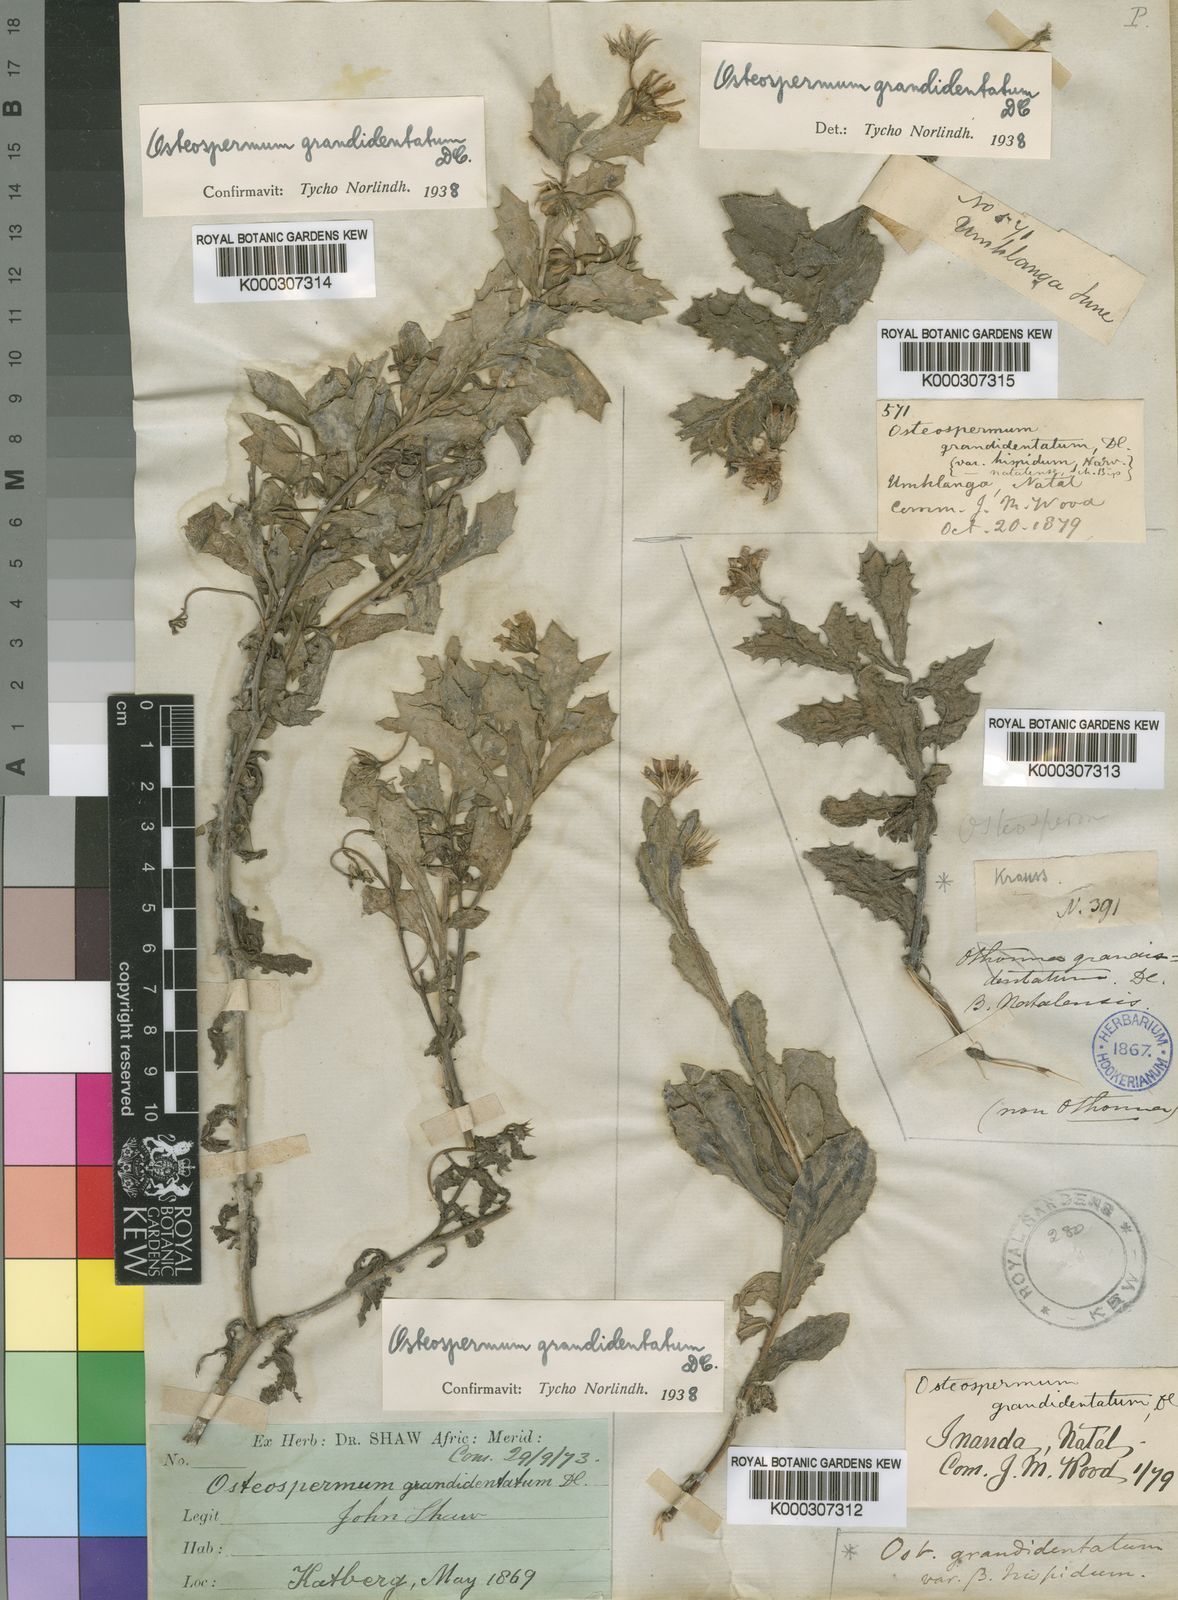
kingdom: Plantae
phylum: Tracheophyta
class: Magnoliopsida
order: Asterales
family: Asteraceae
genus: Osteospermum
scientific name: Osteospermum grandidentatum
